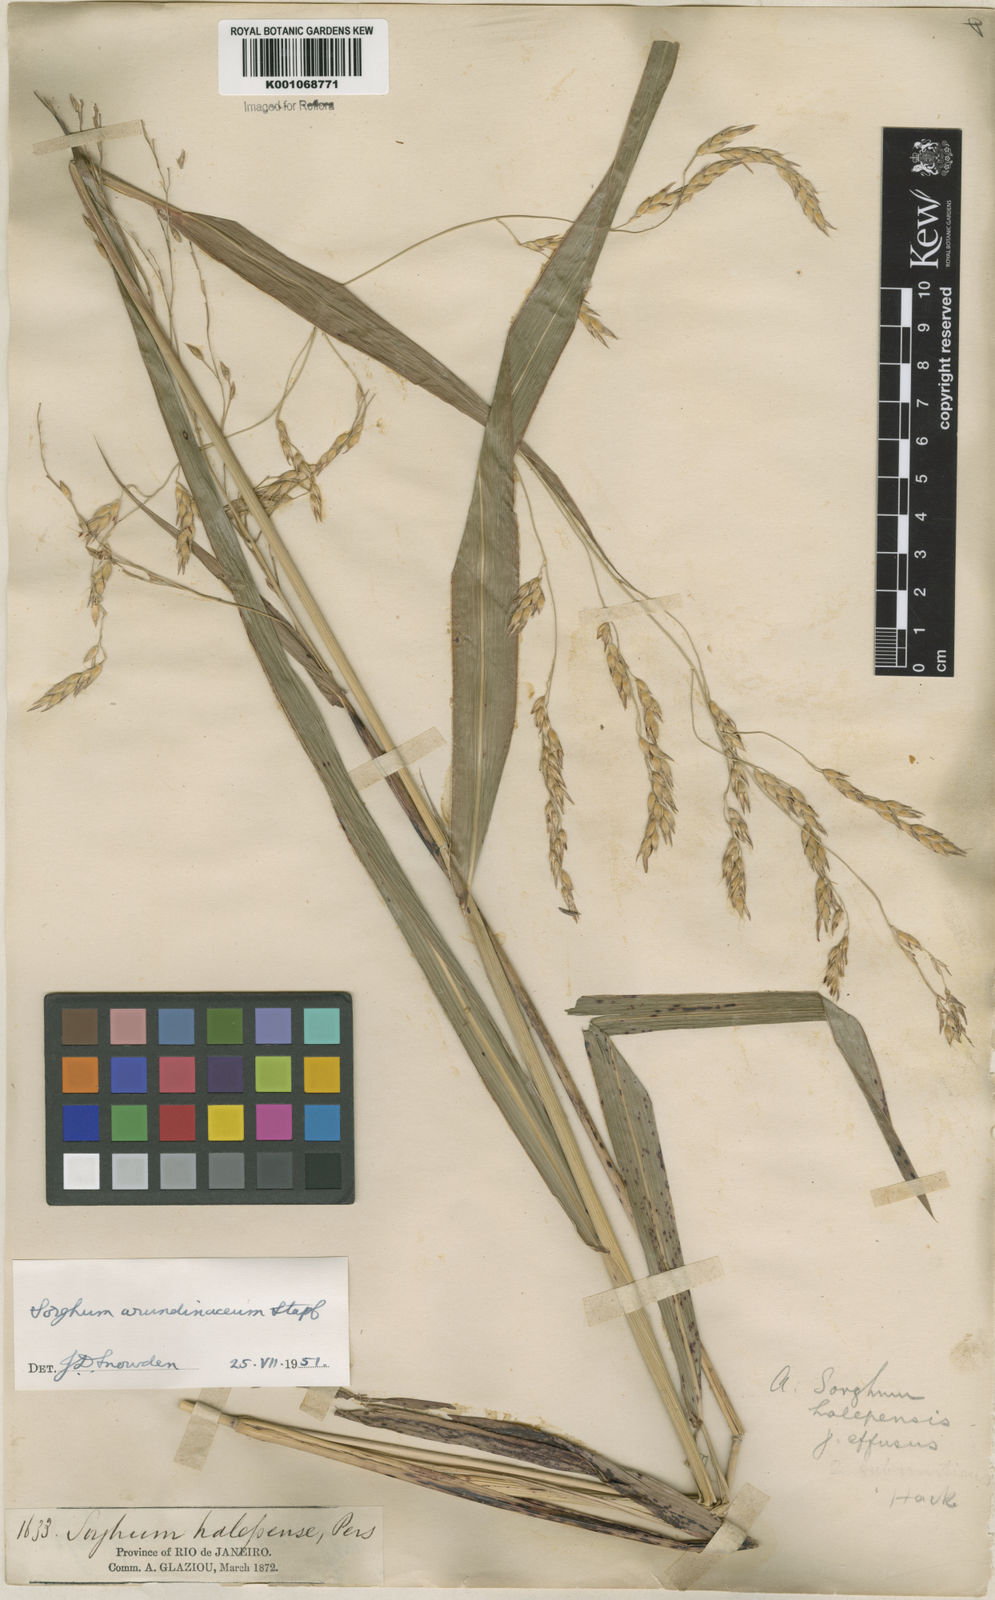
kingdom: Plantae
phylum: Tracheophyta
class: Liliopsida
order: Poales
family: Poaceae
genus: Sorghum
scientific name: Sorghum arundinaceum
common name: Sorghum
